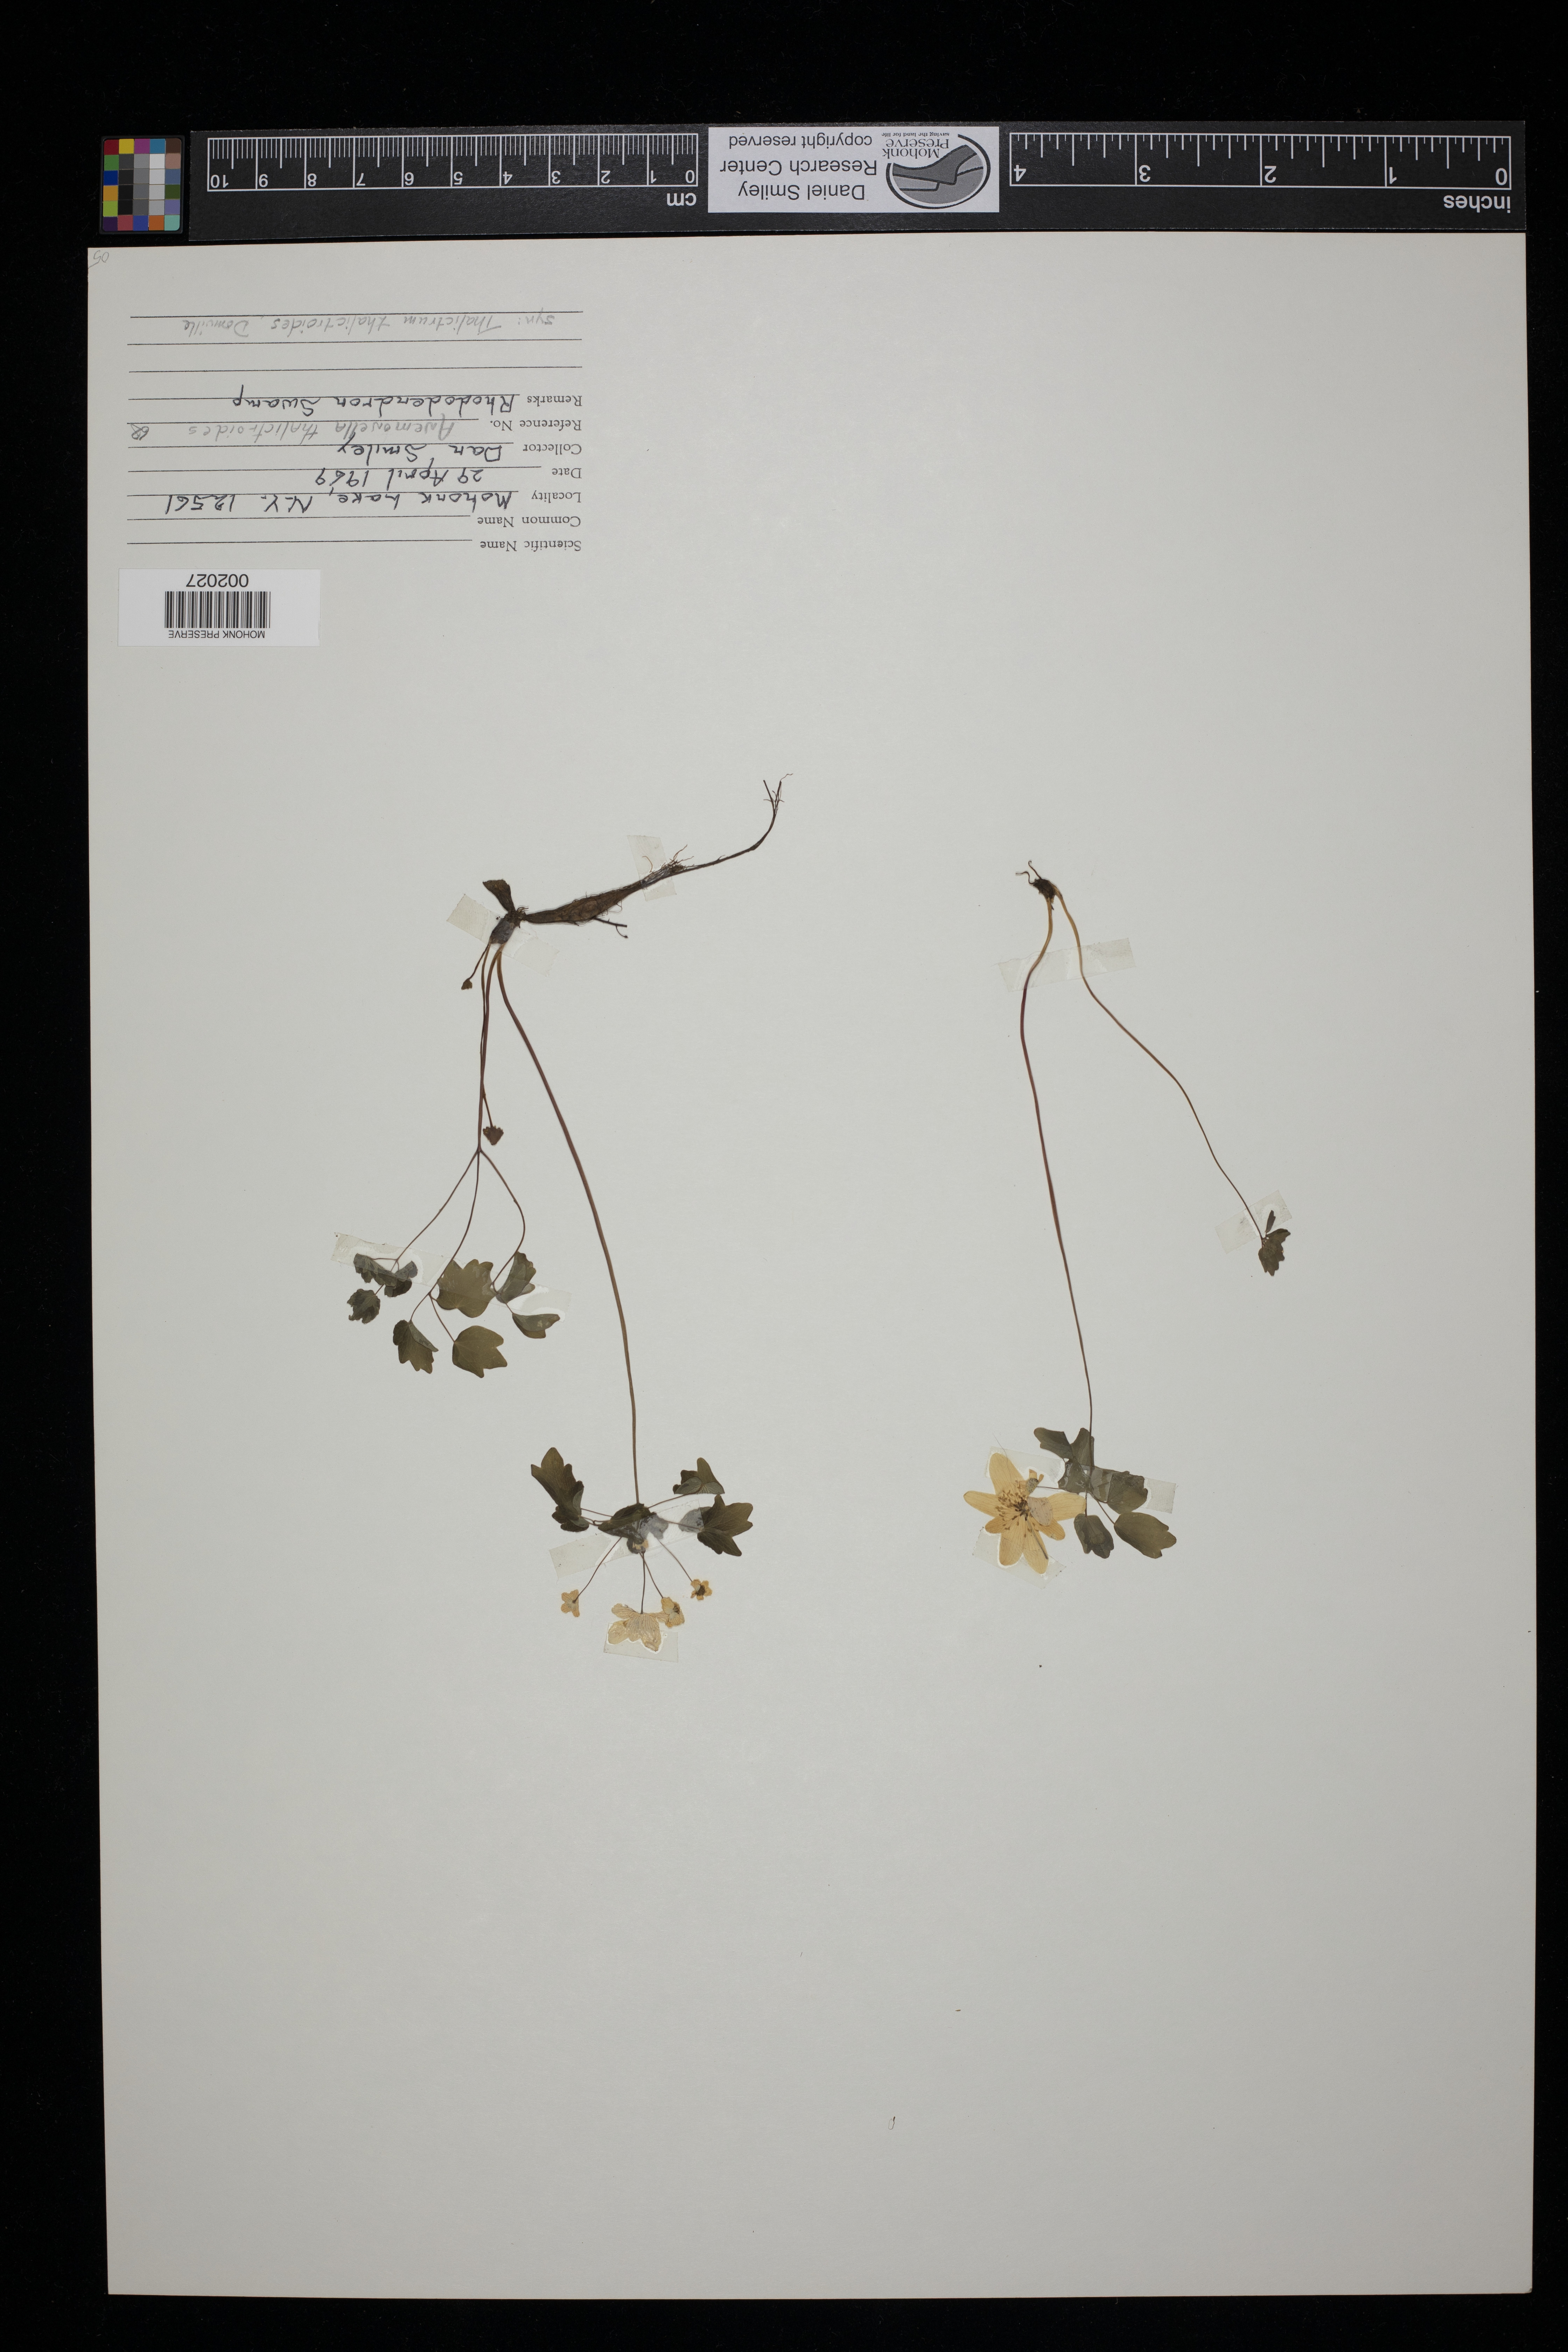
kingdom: Plantae
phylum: Tracheophyta
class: Magnoliopsida
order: Ranunculales
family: Ranunculaceae
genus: Thalictrum
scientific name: Thalictrum thalictroides
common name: Rue-anemone
